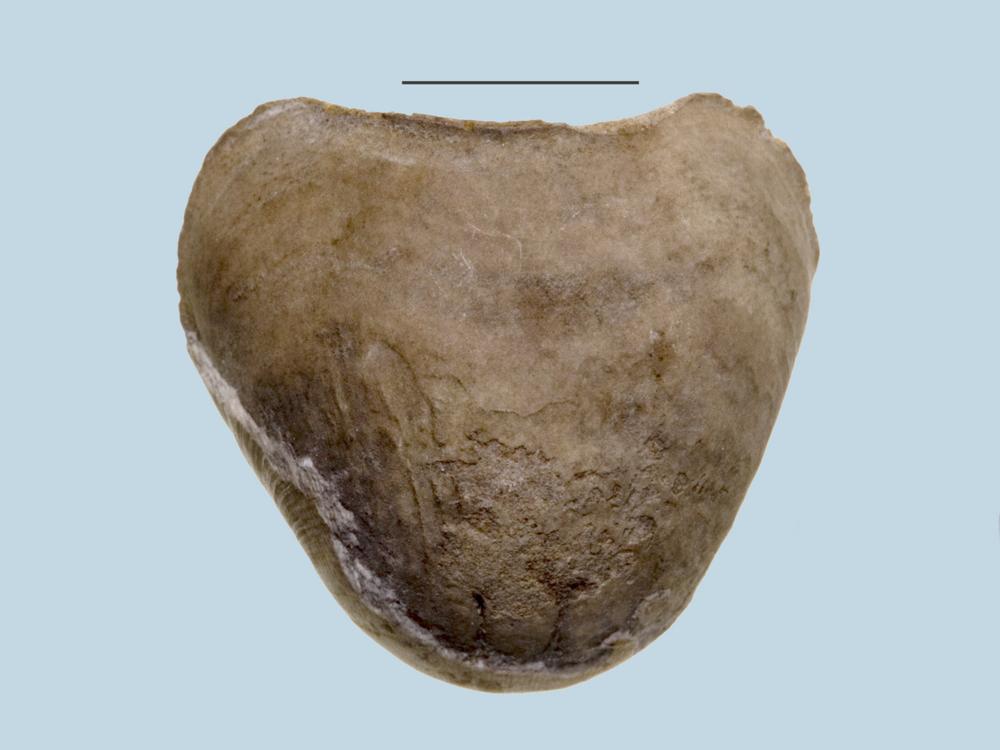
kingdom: Animalia
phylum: Brachiopoda
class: Rhynchonellata
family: Porambonitidae
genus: Porambonites
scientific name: Porambonites
